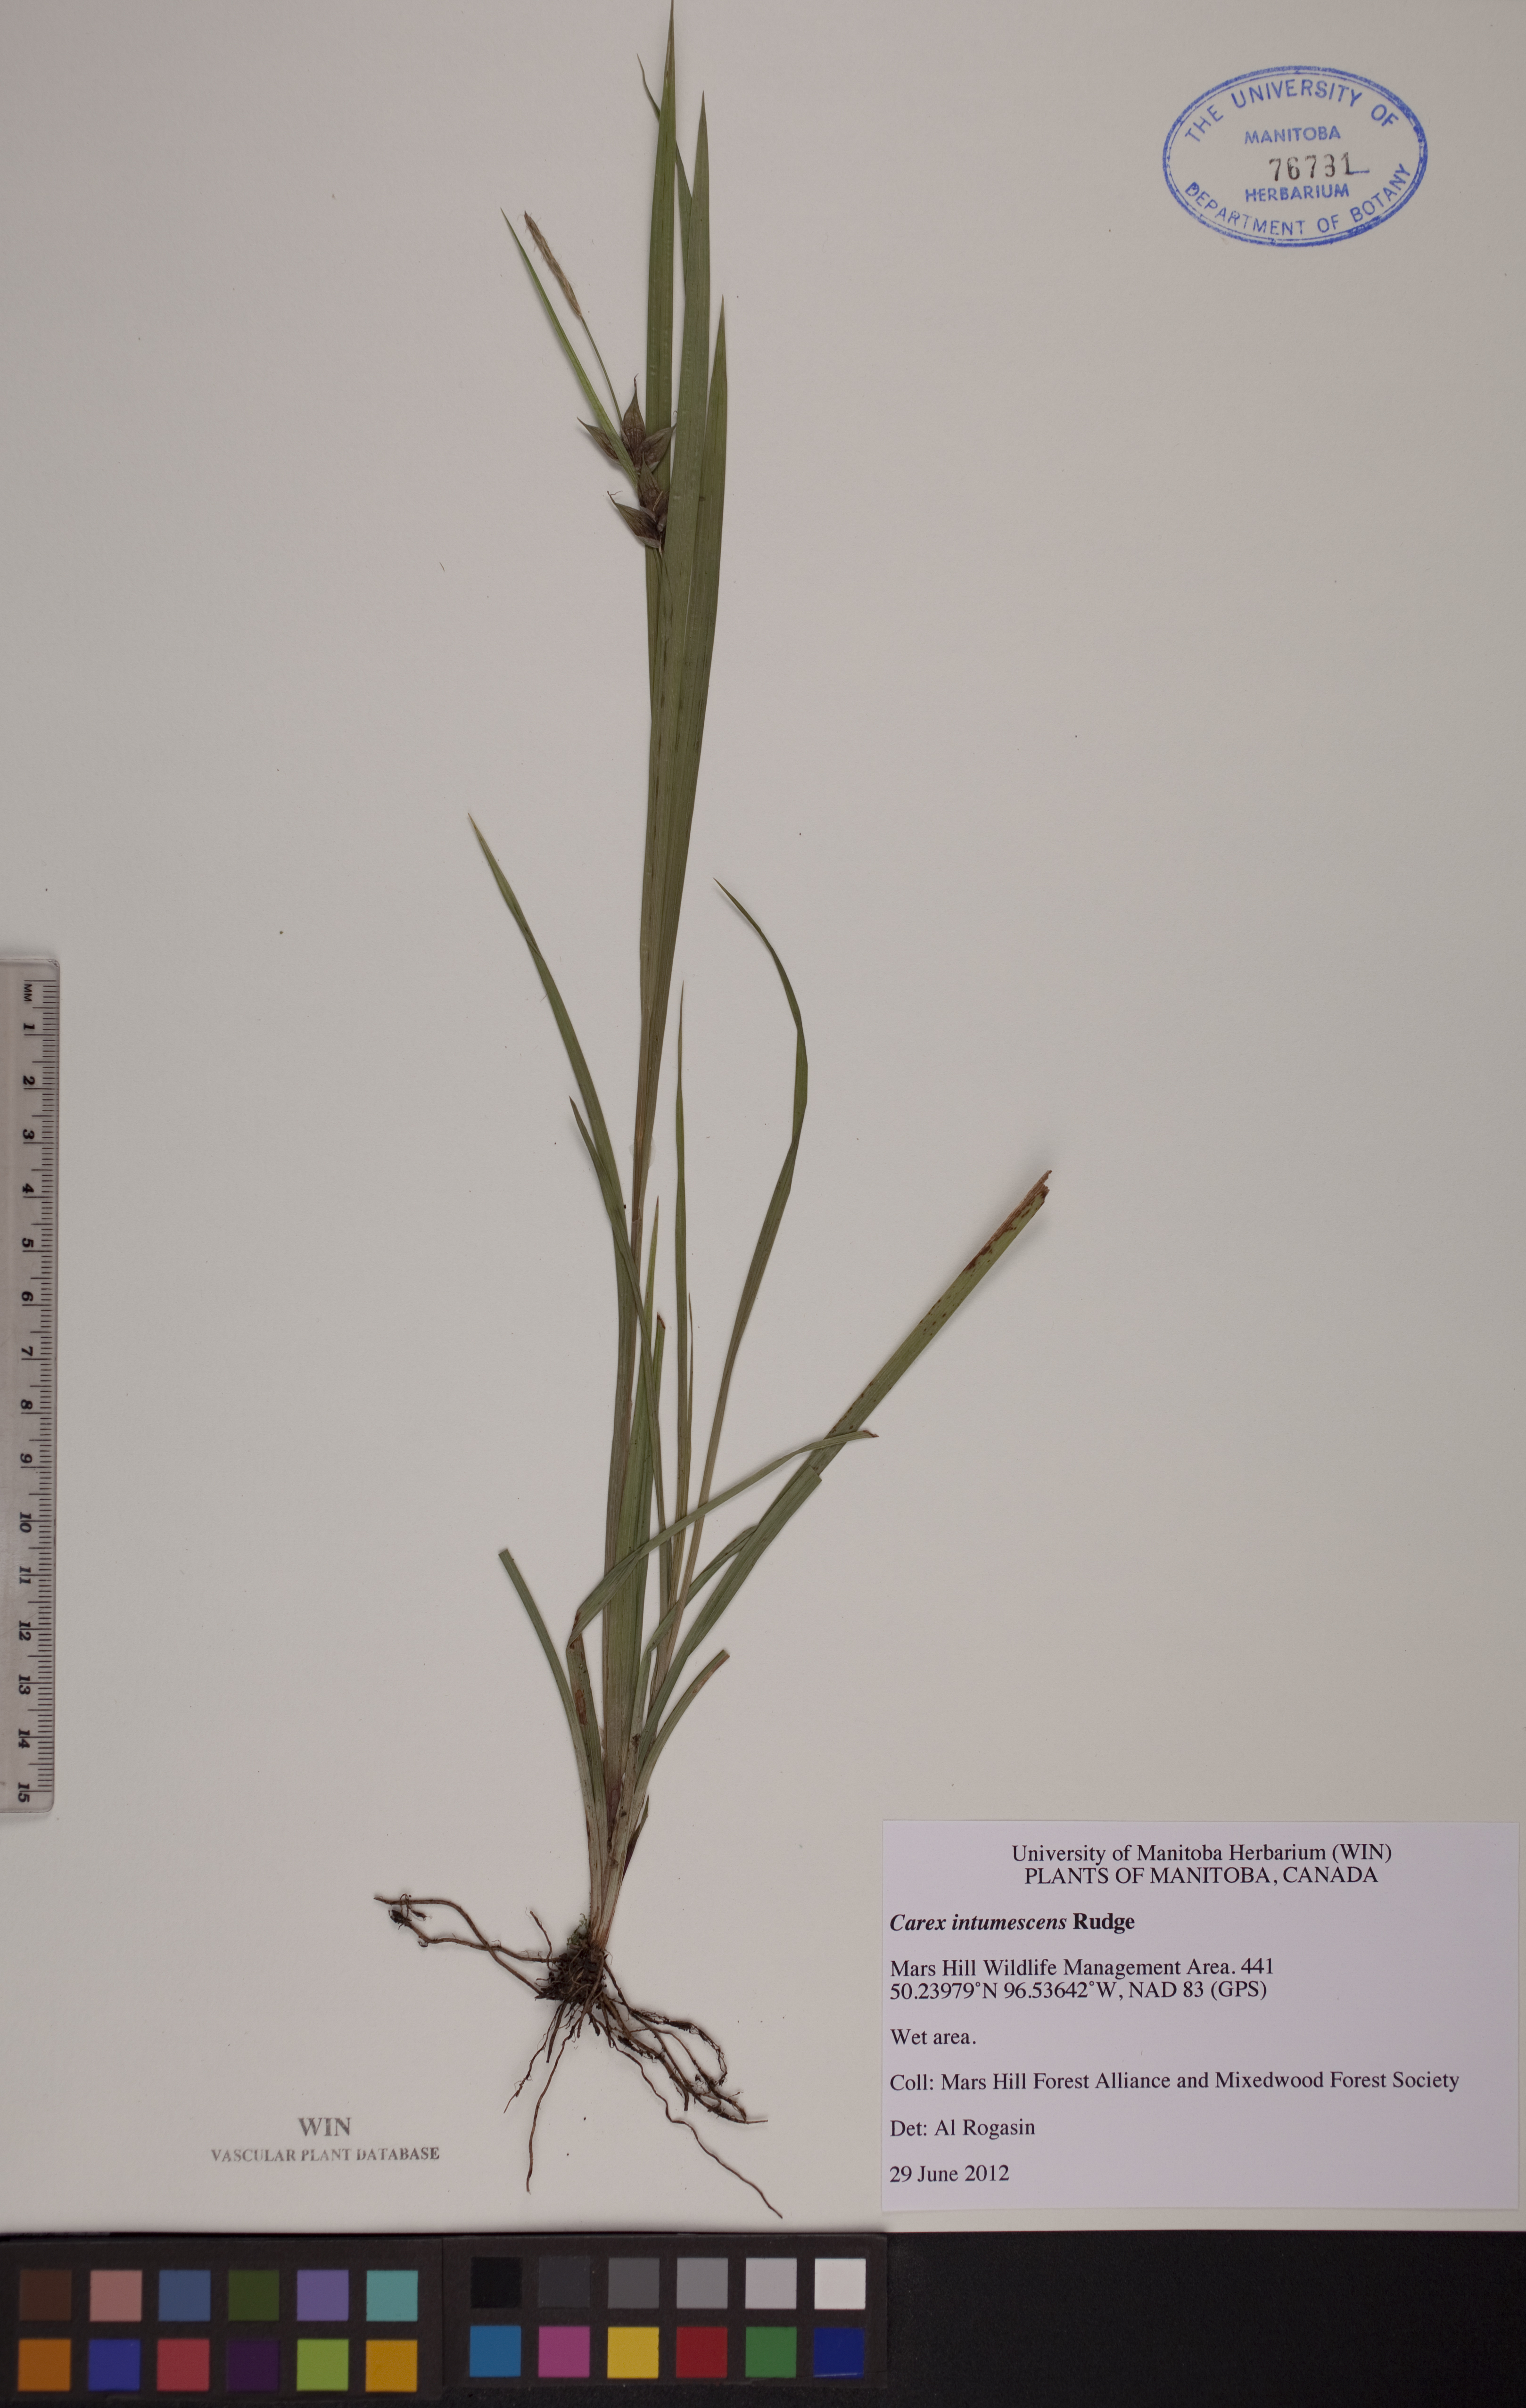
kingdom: Plantae
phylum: Tracheophyta
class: Liliopsida
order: Poales
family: Cyperaceae
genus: Carex
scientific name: Carex intumescens
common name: Greater bladder sedge
